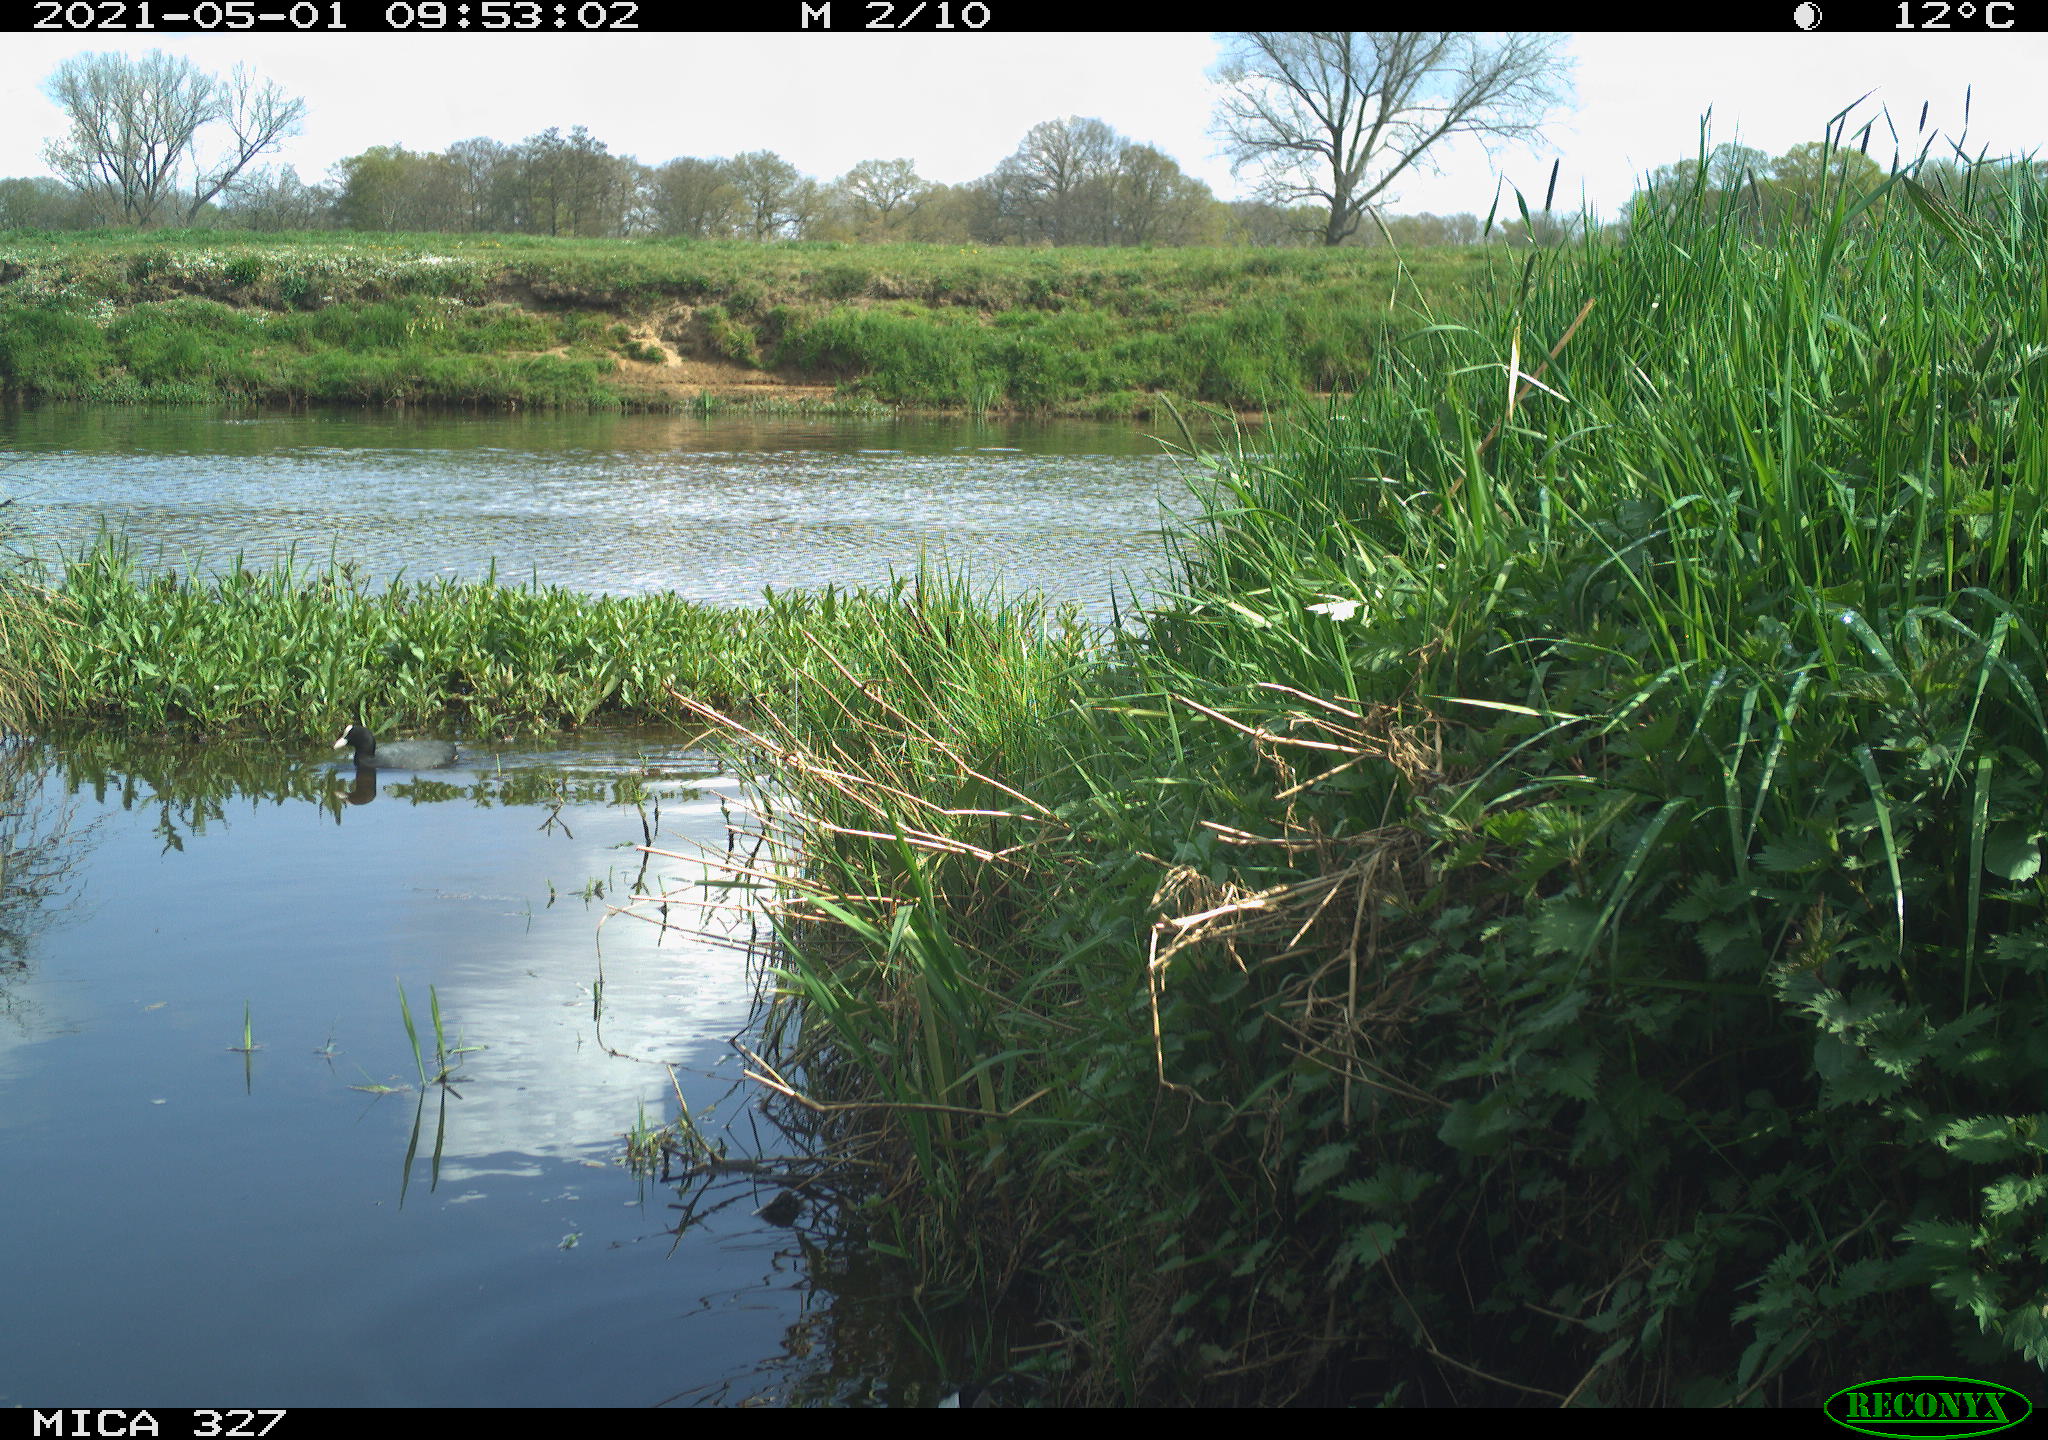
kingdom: Animalia
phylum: Chordata
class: Aves
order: Gruiformes
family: Rallidae
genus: Fulica
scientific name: Fulica atra
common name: Eurasian coot
